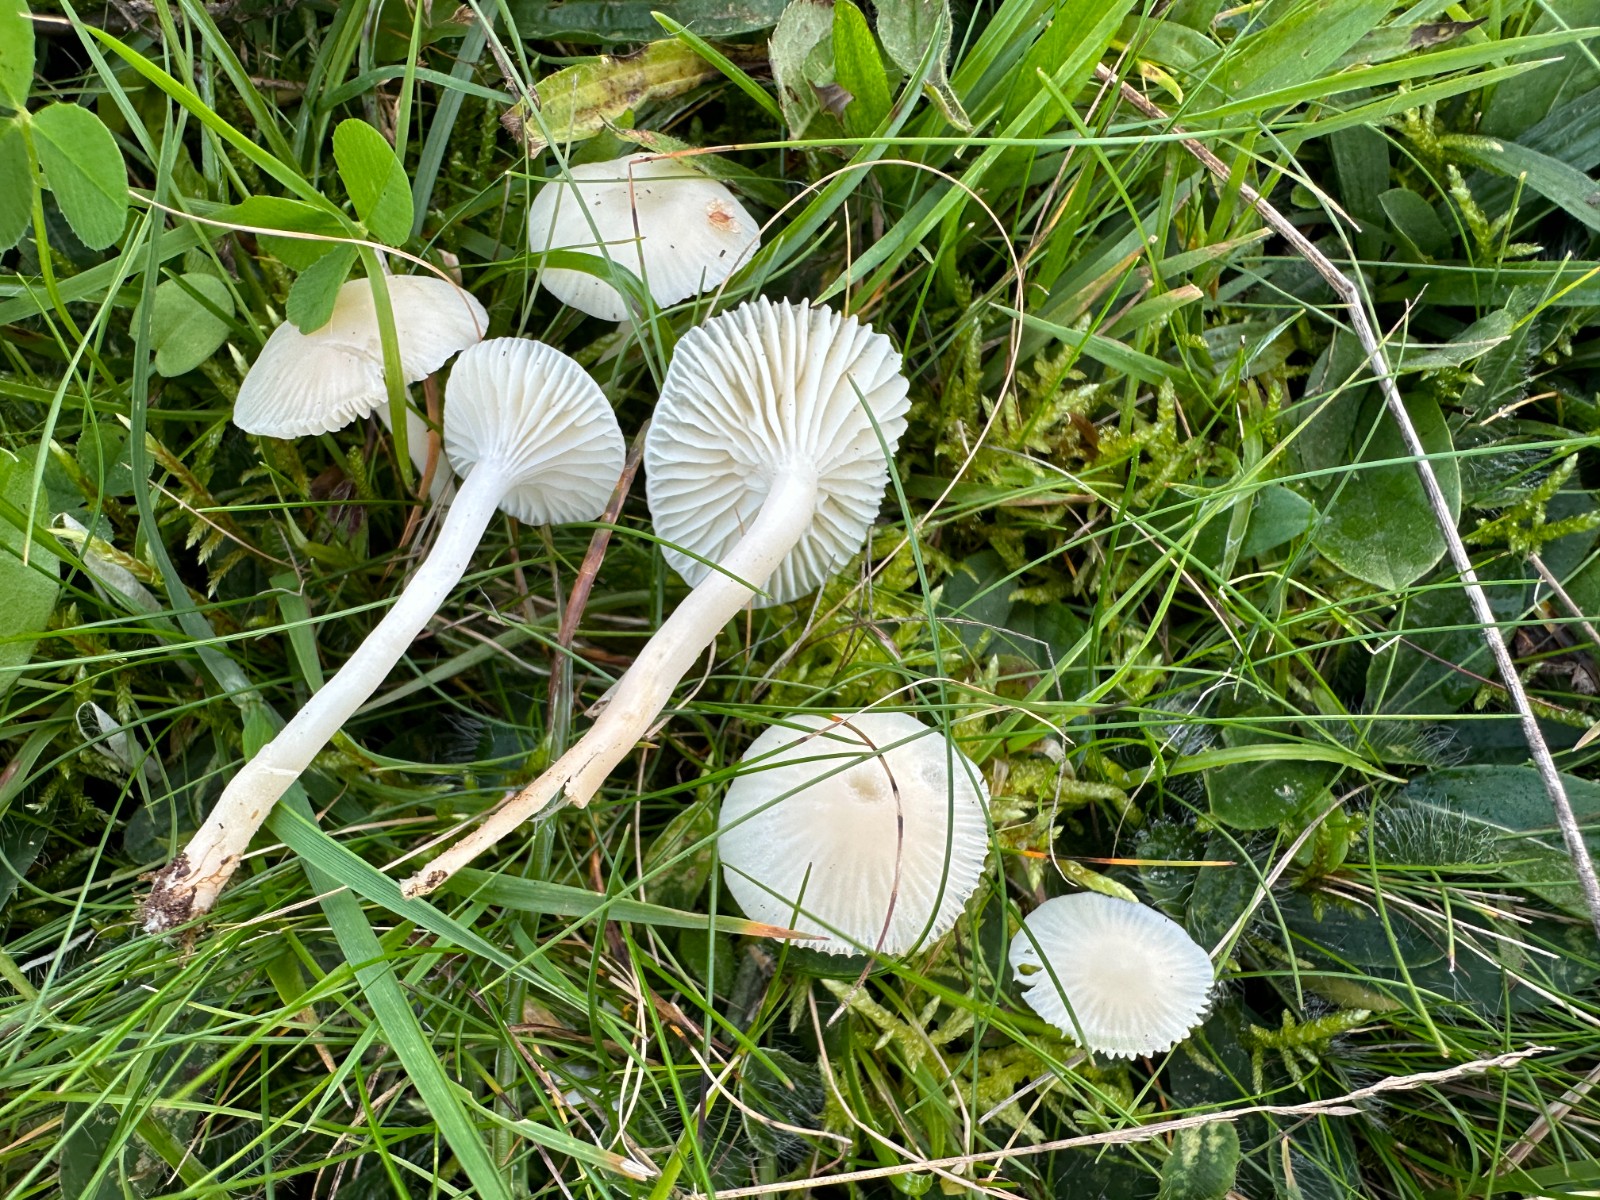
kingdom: Fungi
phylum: Basidiomycota
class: Agaricomycetes
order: Agaricales
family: Hygrophoraceae
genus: Cuphophyllus
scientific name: Cuphophyllus virgineus
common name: snehvid vokshat
